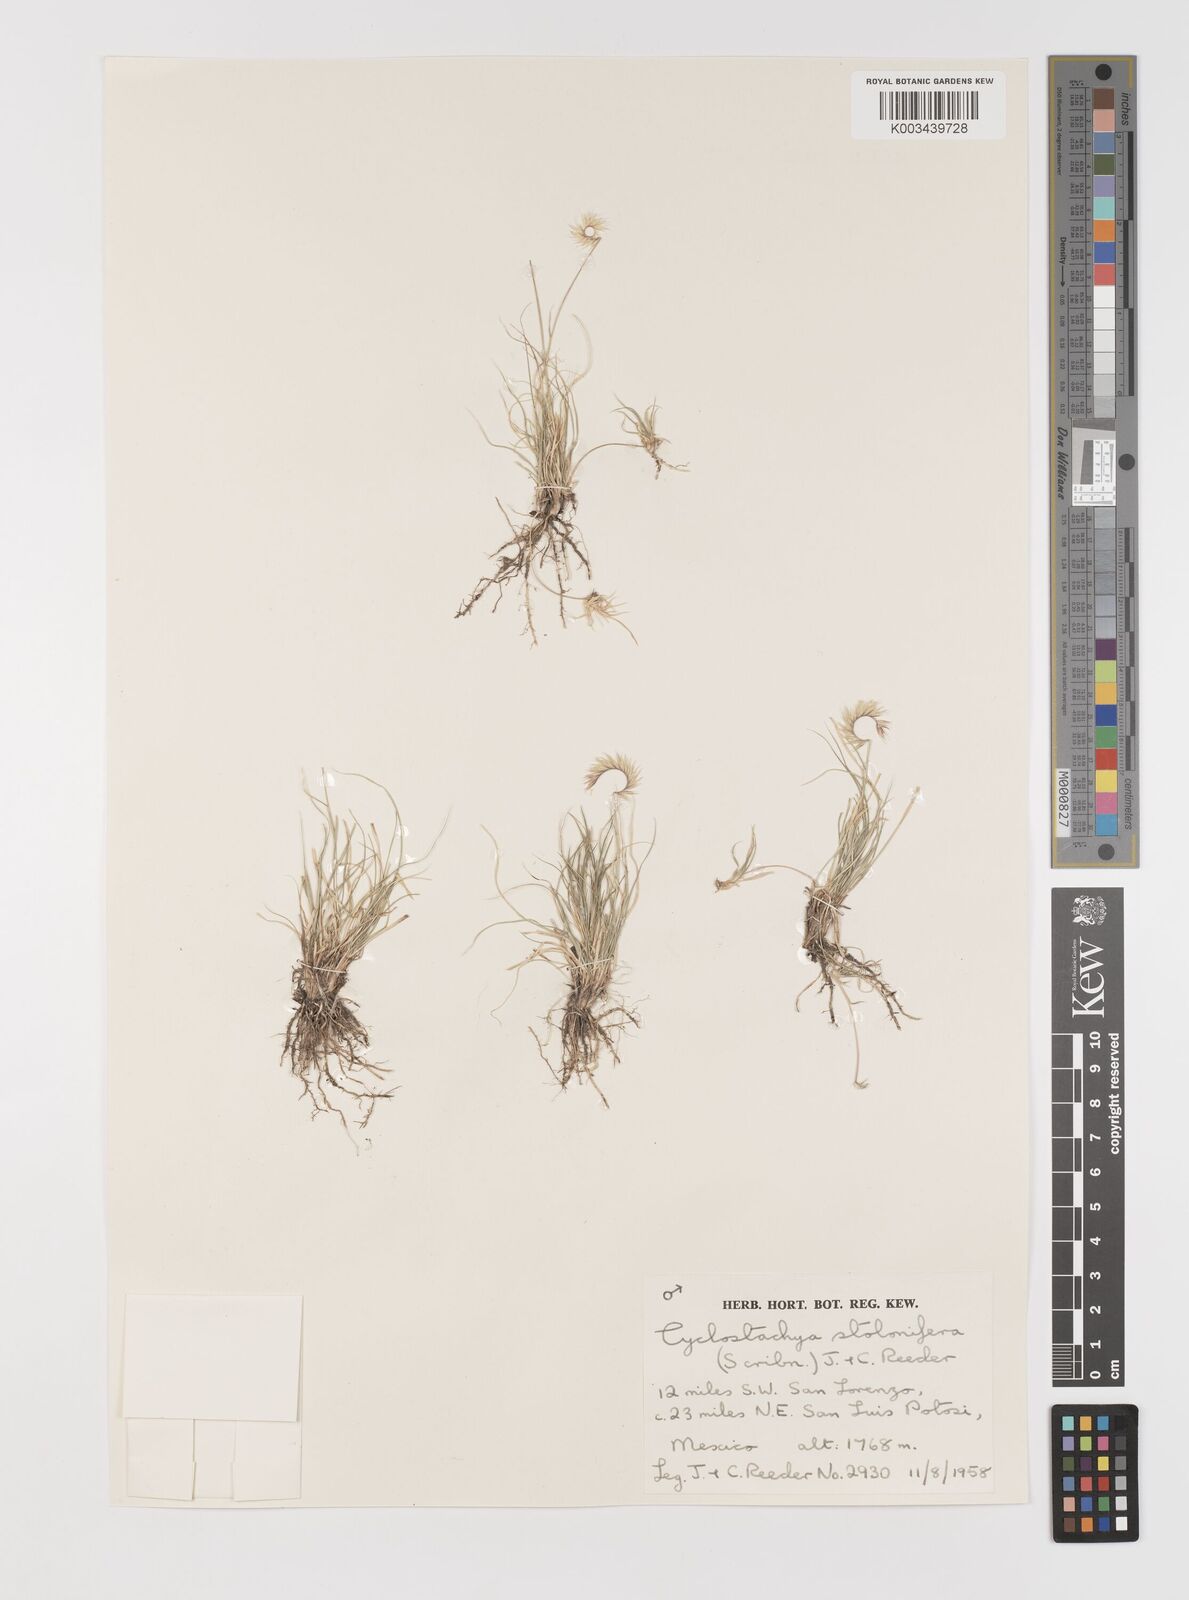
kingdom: Plantae
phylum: Tracheophyta
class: Liliopsida
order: Poales
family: Poaceae
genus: Bouteloua
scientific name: Bouteloua stolonifera
